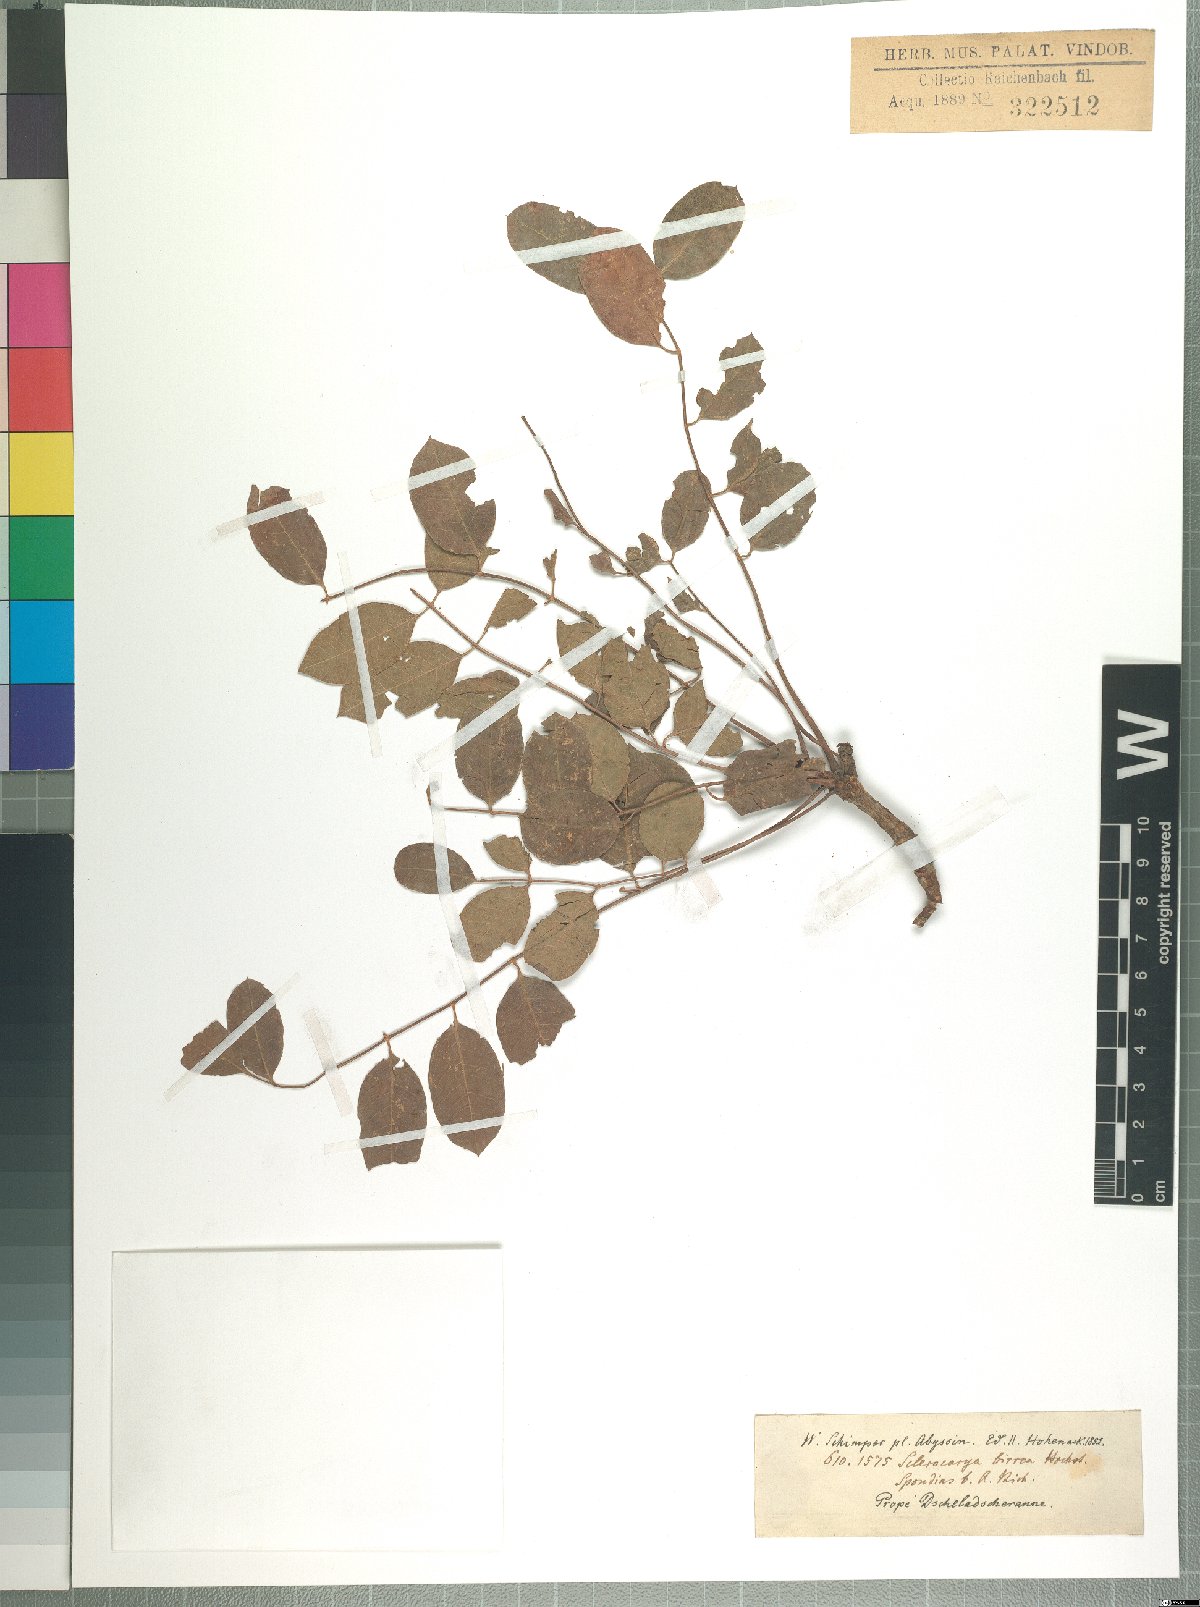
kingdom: Plantae
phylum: Tracheophyta
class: Magnoliopsida
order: Sapindales
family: Anacardiaceae
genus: Sclerocarya
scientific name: Sclerocarya birrea
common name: Marula
